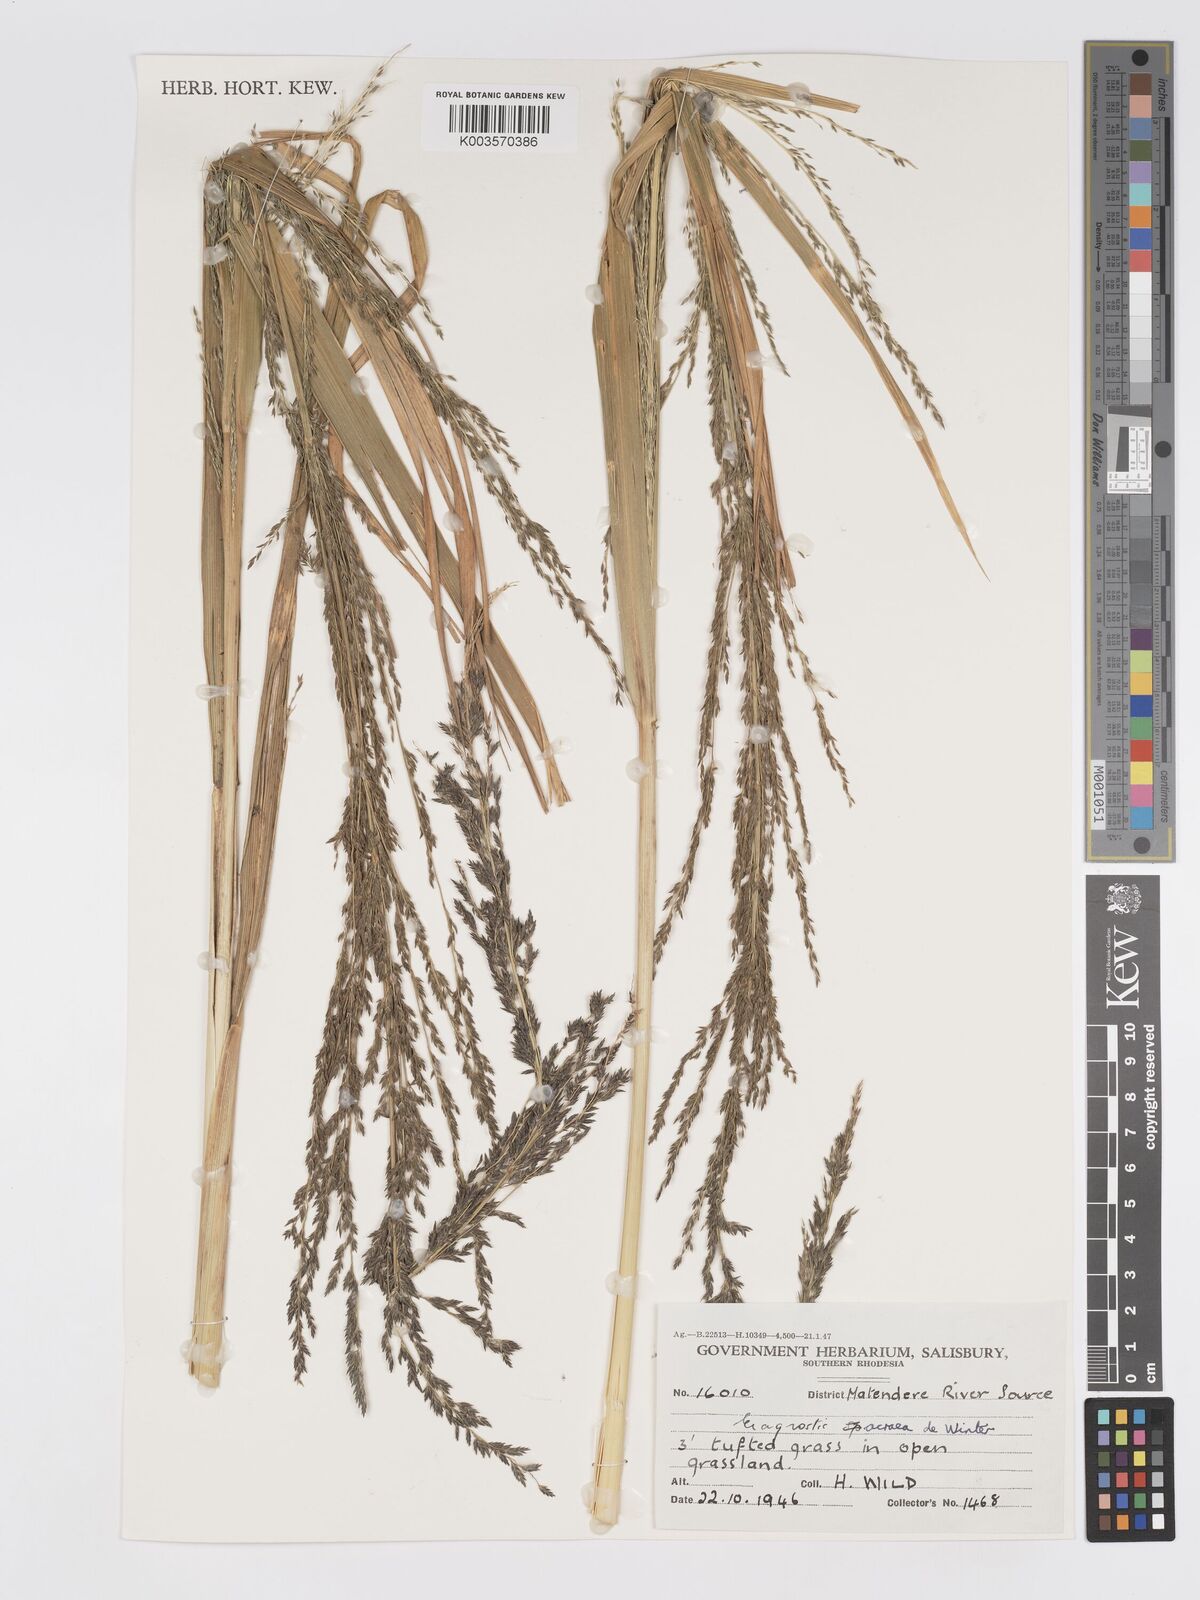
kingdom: Plantae
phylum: Tracheophyta
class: Liliopsida
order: Poales
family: Poaceae
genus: Eragrostis
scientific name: Eragrostis acraea
